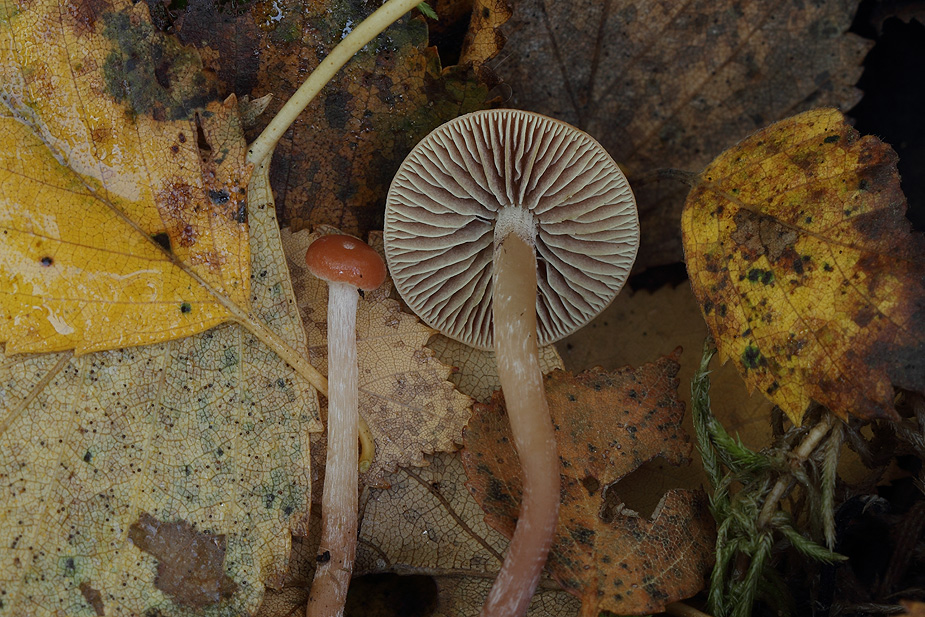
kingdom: Fungi
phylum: Basidiomycota
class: Agaricomycetes
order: Agaricales
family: Strophariaceae
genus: Bogbodia
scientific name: Bogbodia uda
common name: tørve-svovlhat
